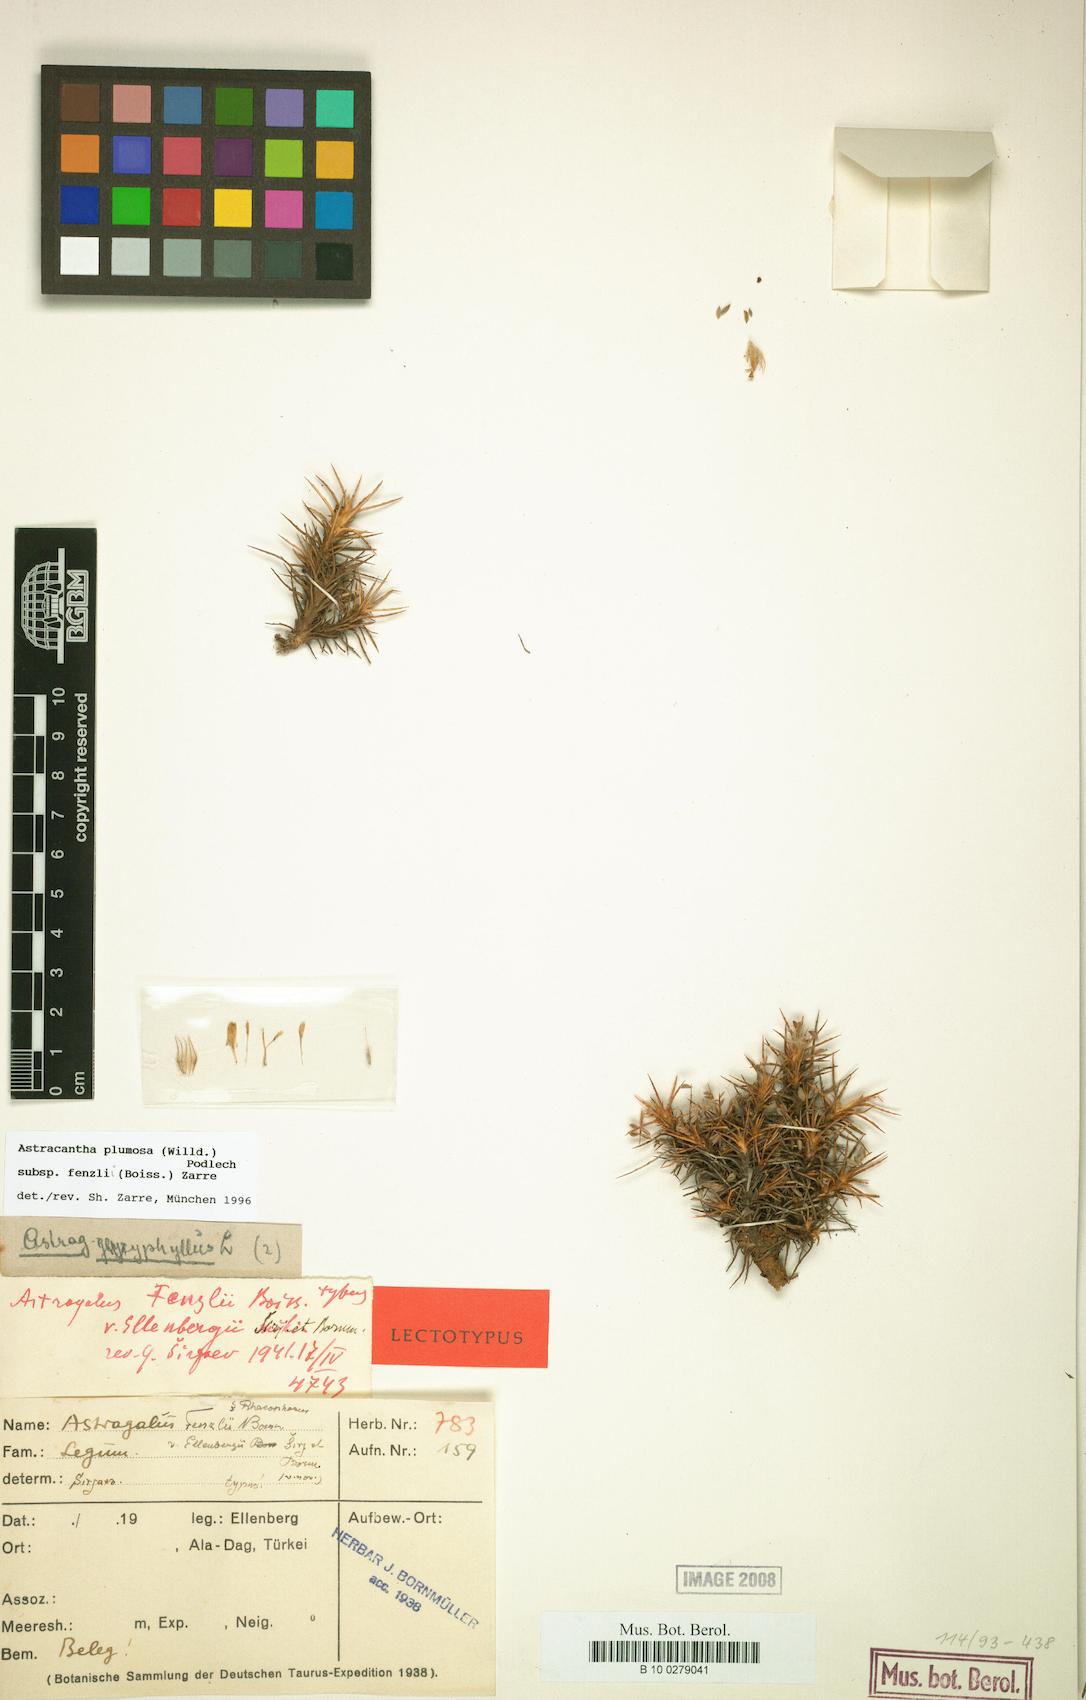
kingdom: Plantae
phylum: Tracheophyta
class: Magnoliopsida
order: Fabales
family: Fabaceae
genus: Astragalus
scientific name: Astragalus plumosus
